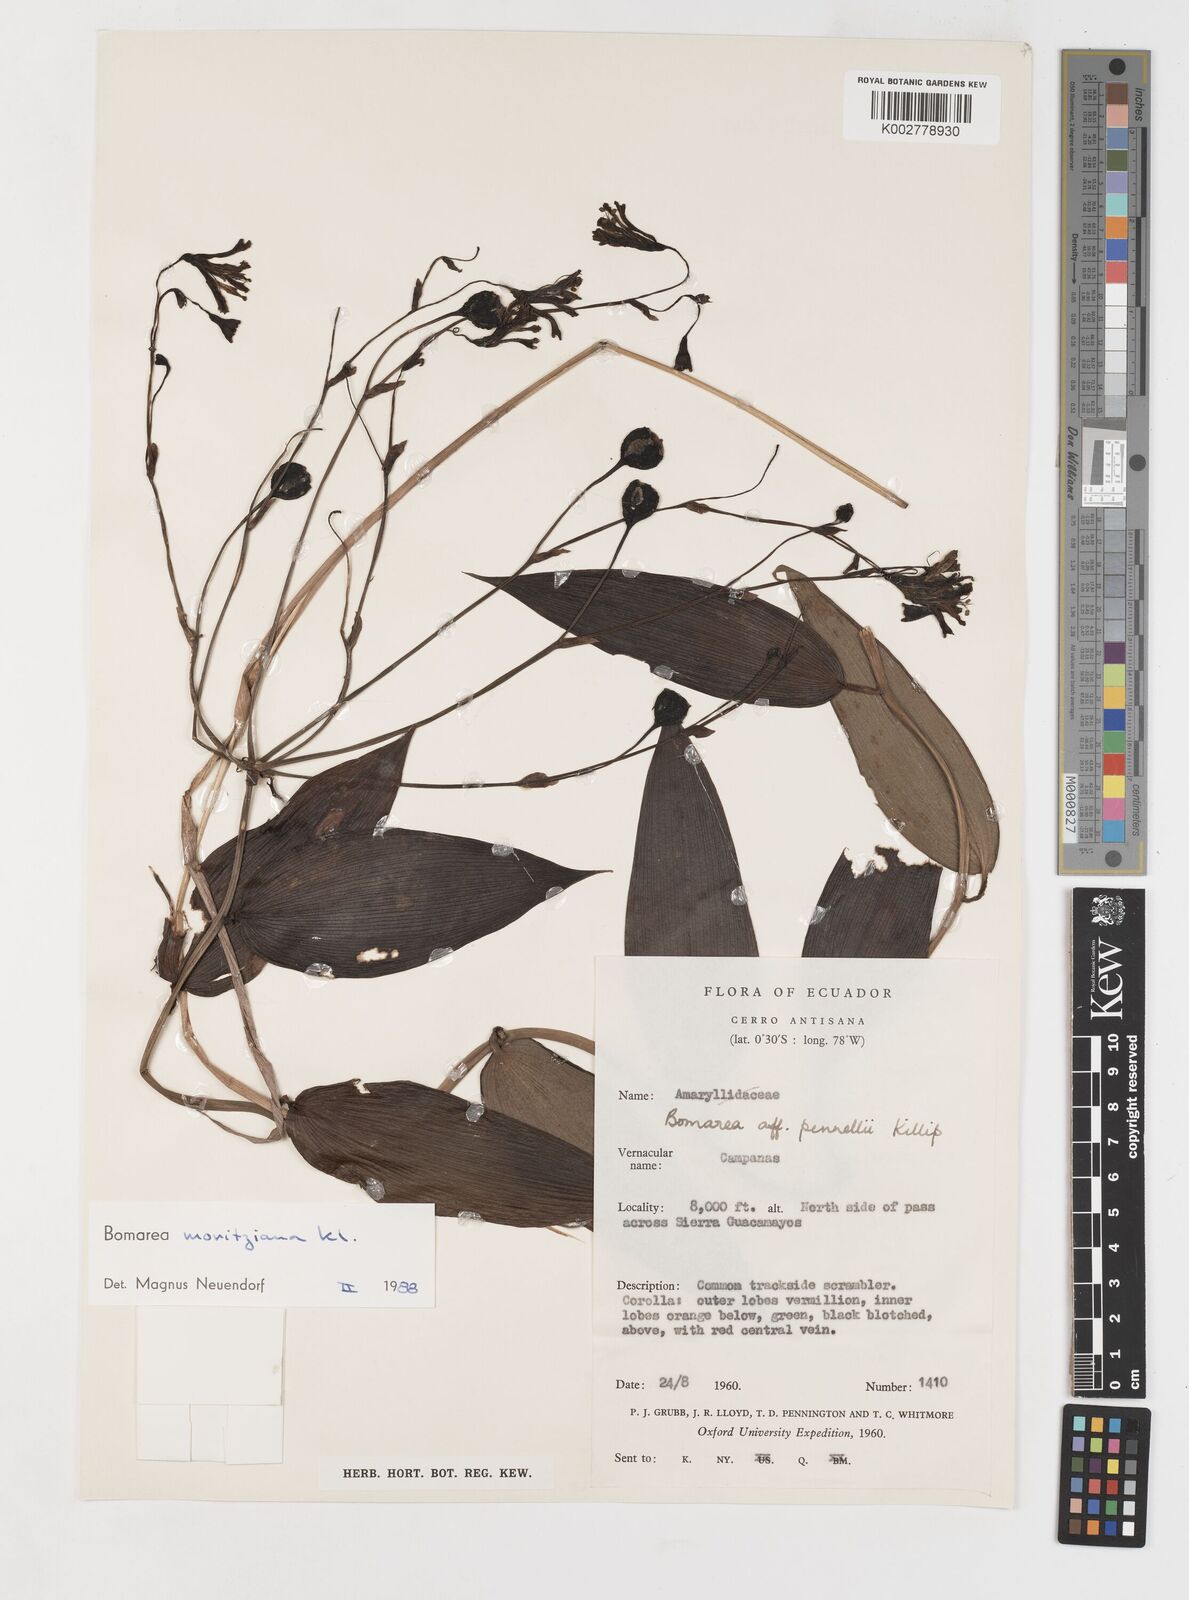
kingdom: Plantae
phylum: Tracheophyta
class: Liliopsida
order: Liliales
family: Alstroemeriaceae
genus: Bomarea
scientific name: Bomarea moritziana
